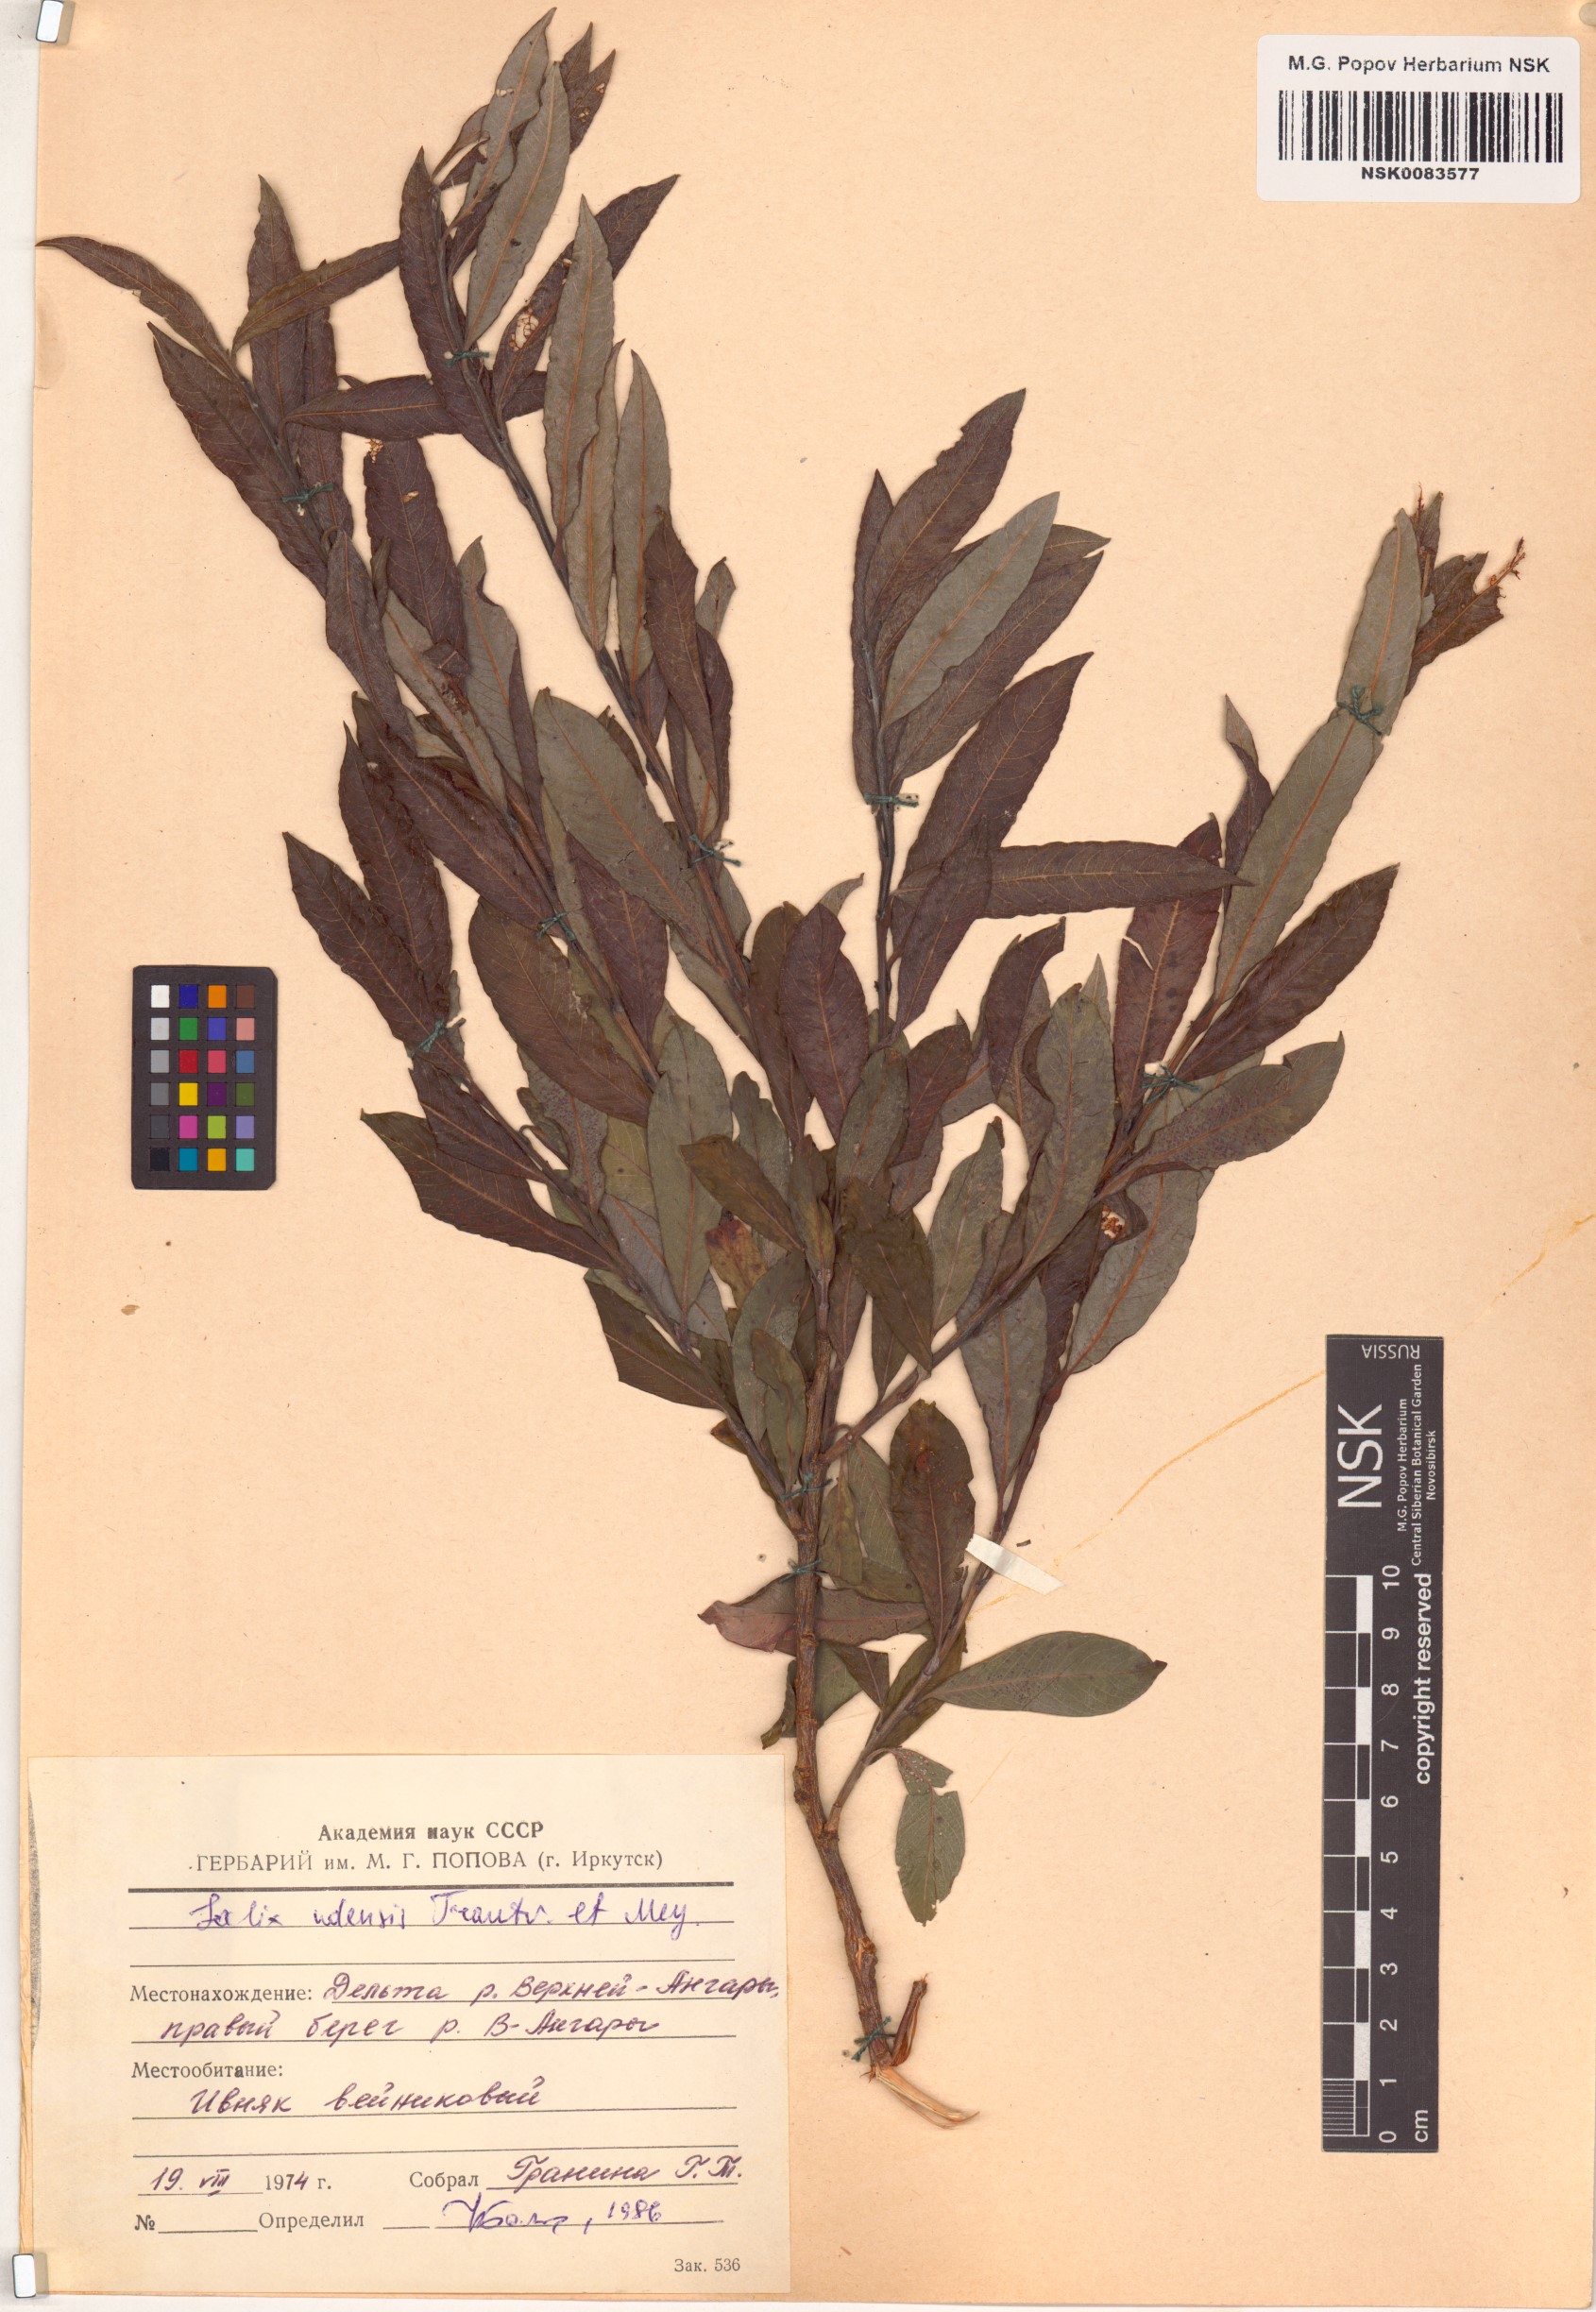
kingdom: Plantae
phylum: Tracheophyta
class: Magnoliopsida
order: Malpighiales
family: Salicaceae
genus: Salix
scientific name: Salix udensis
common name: Sachalin willow
